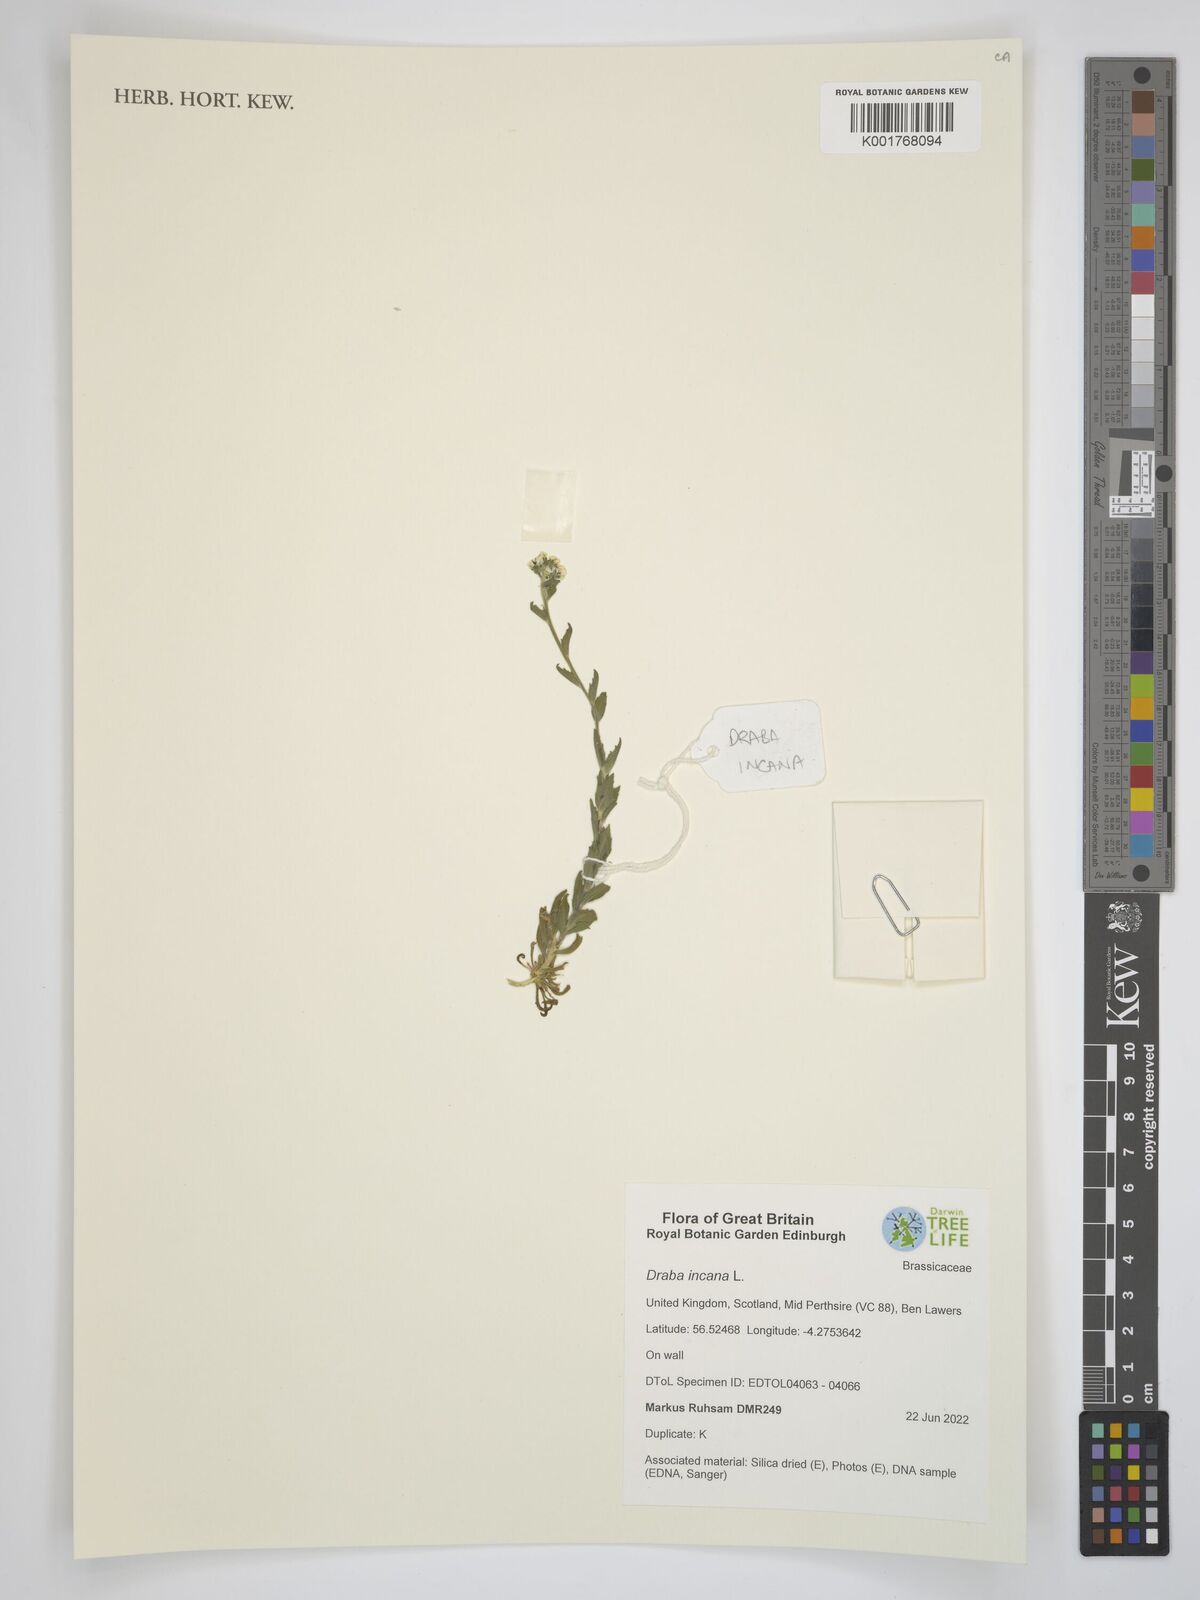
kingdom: Plantae
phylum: Tracheophyta
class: Magnoliopsida
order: Brassicales
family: Brassicaceae
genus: Draba
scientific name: Draba incana
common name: Hoary whitlow-grass
